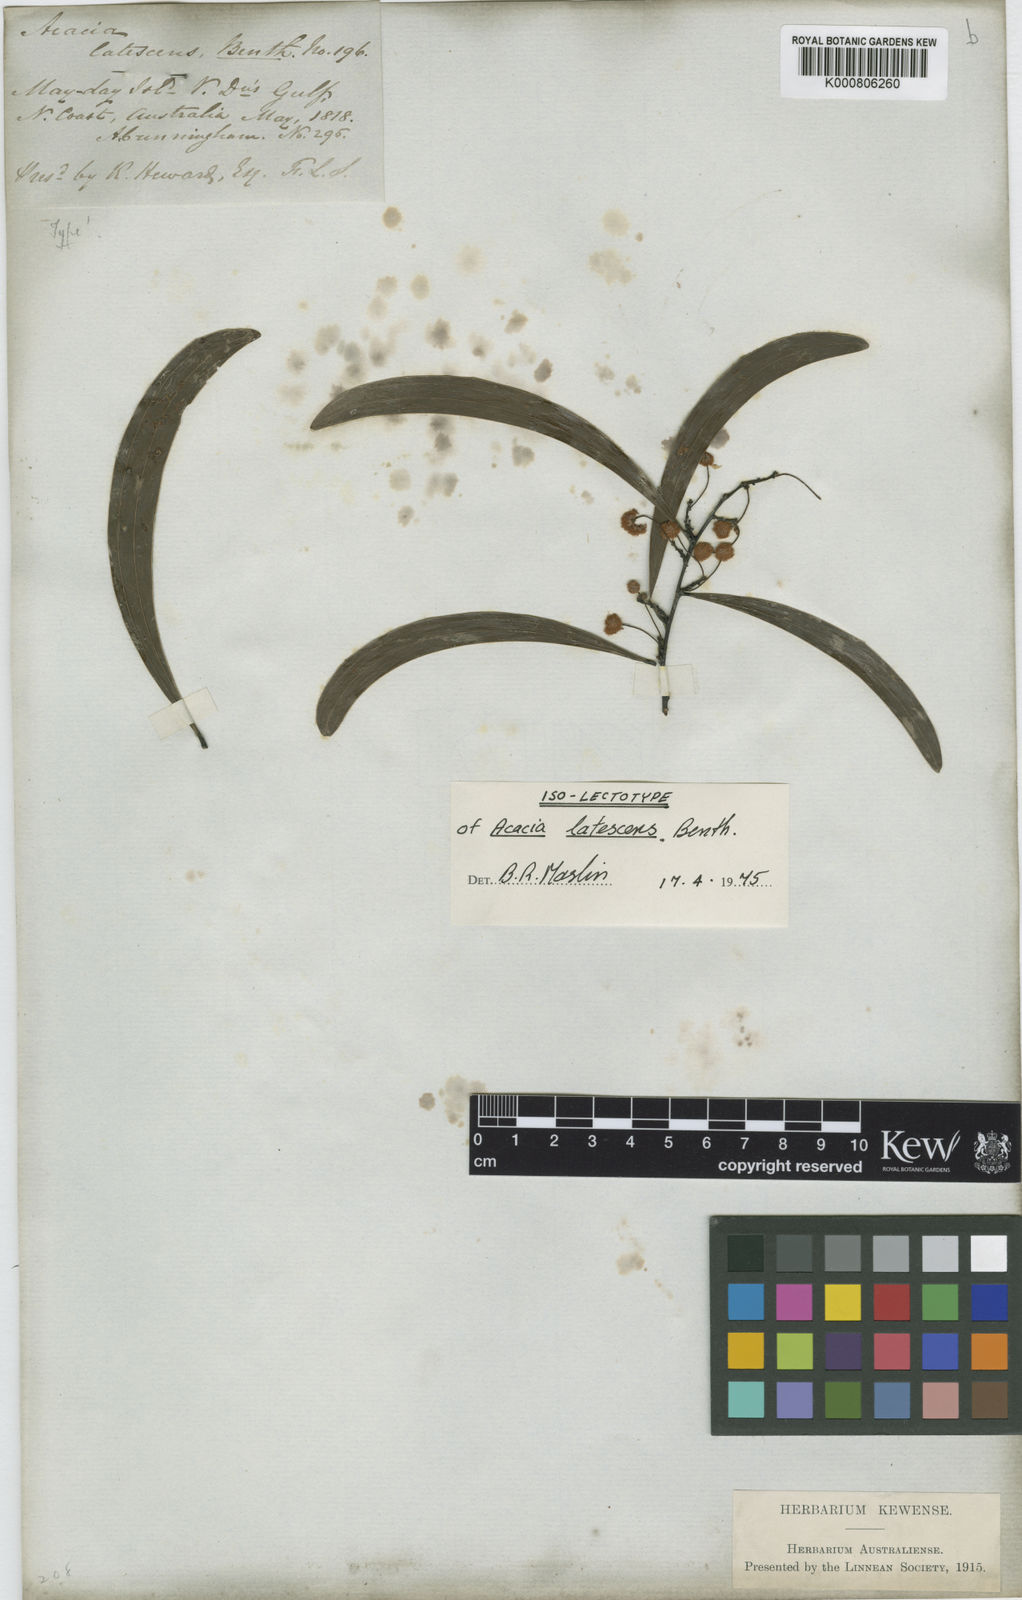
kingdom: Plantae
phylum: Tracheophyta
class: Magnoliopsida
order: Fabales
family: Fabaceae
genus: Acacia
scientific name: Acacia latescens
